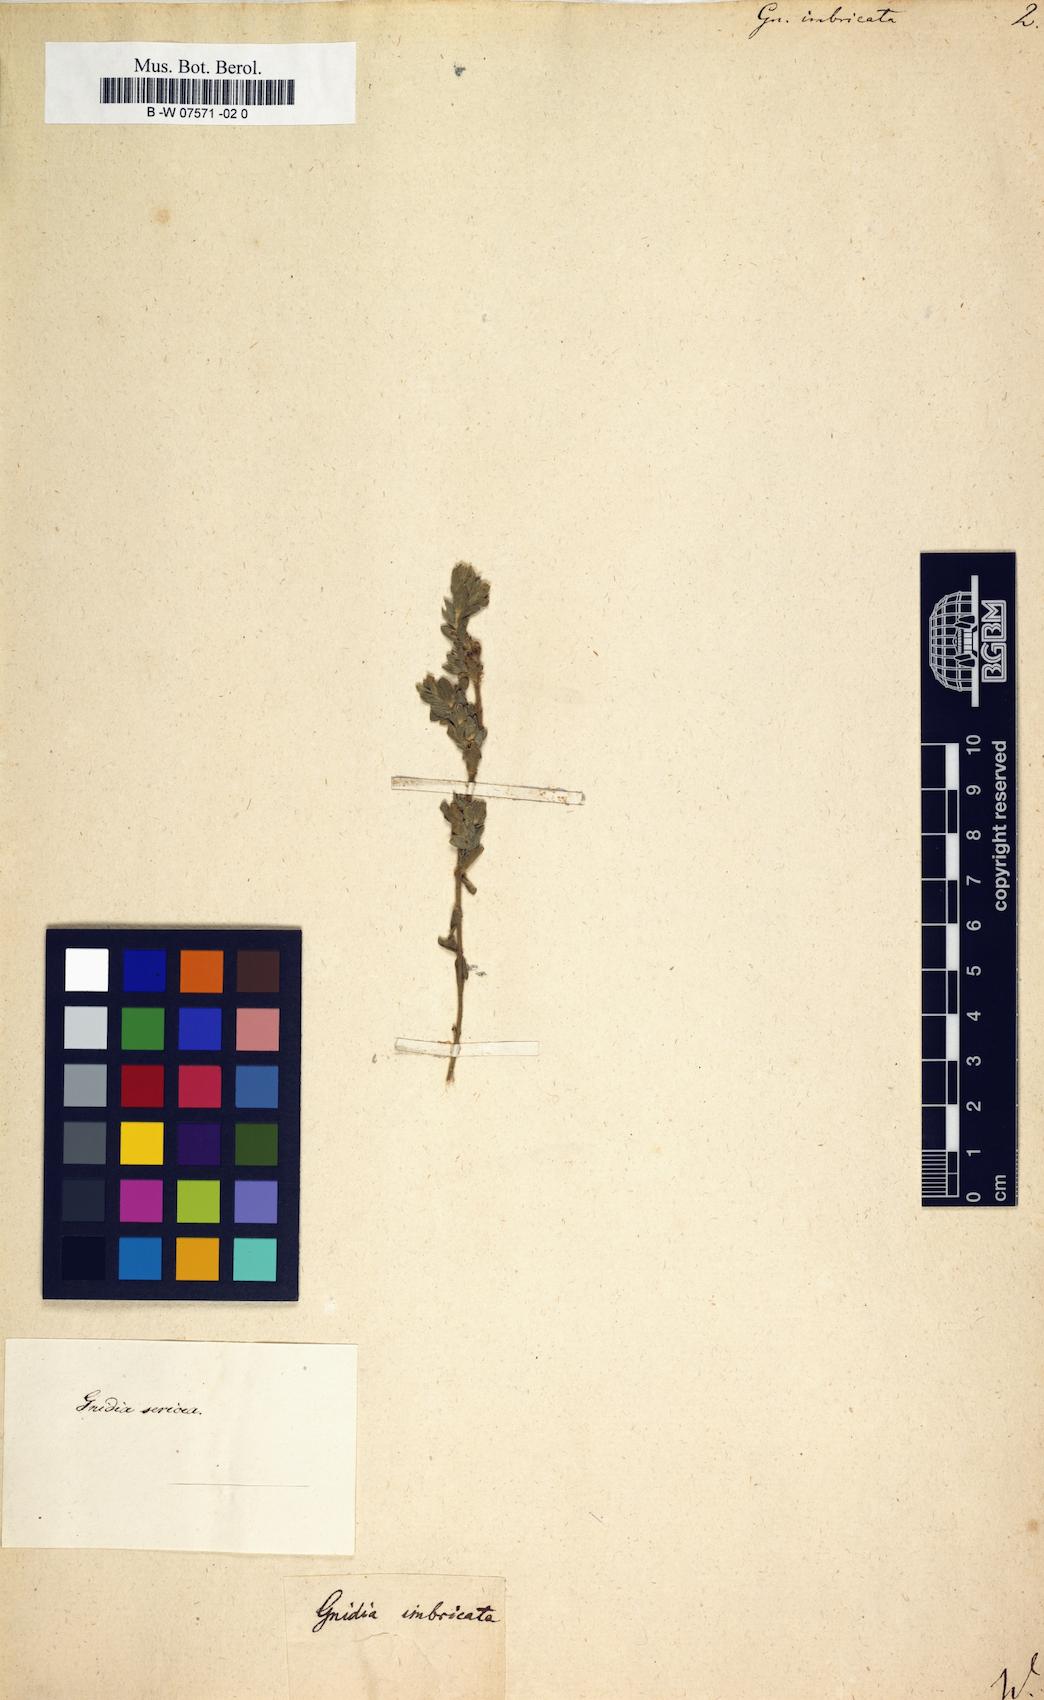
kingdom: Plantae
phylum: Tracheophyta
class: Magnoliopsida
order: Malvales
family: Thymelaeaceae
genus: Gnidia
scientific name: Gnidia imbricata
